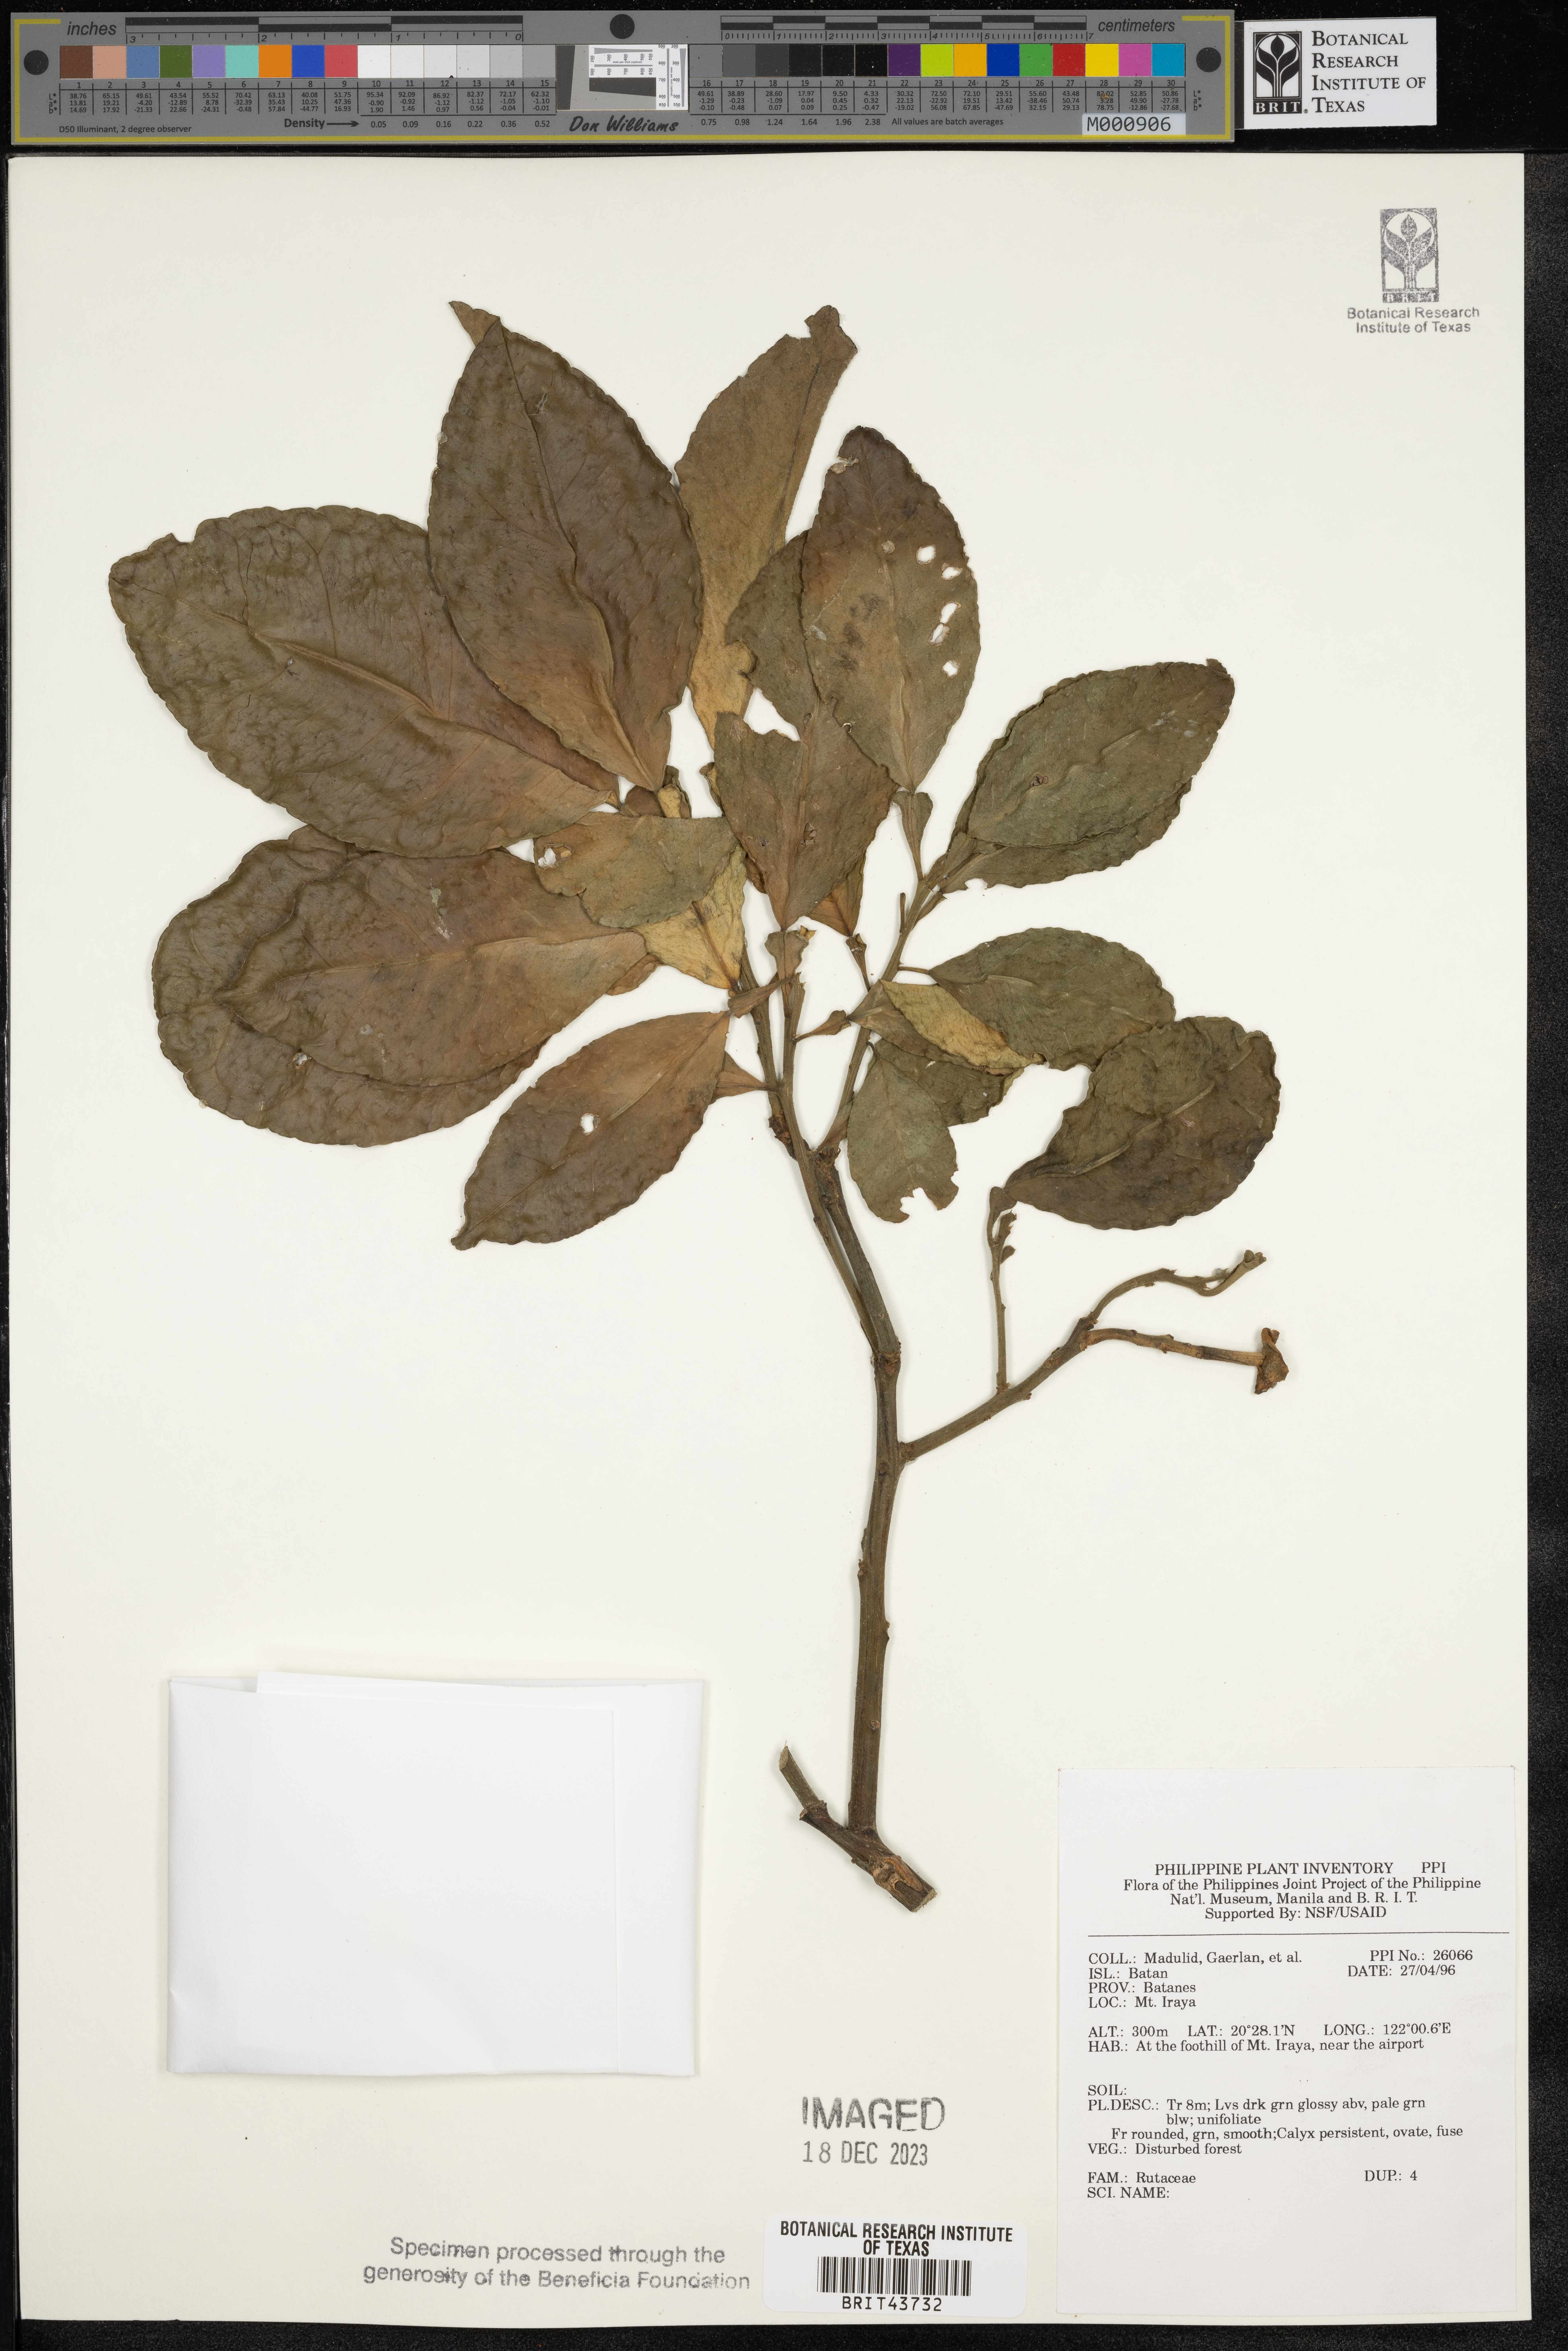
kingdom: Plantae
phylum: Tracheophyta
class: Magnoliopsida
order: Sapindales
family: Rutaceae
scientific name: Rutaceae
